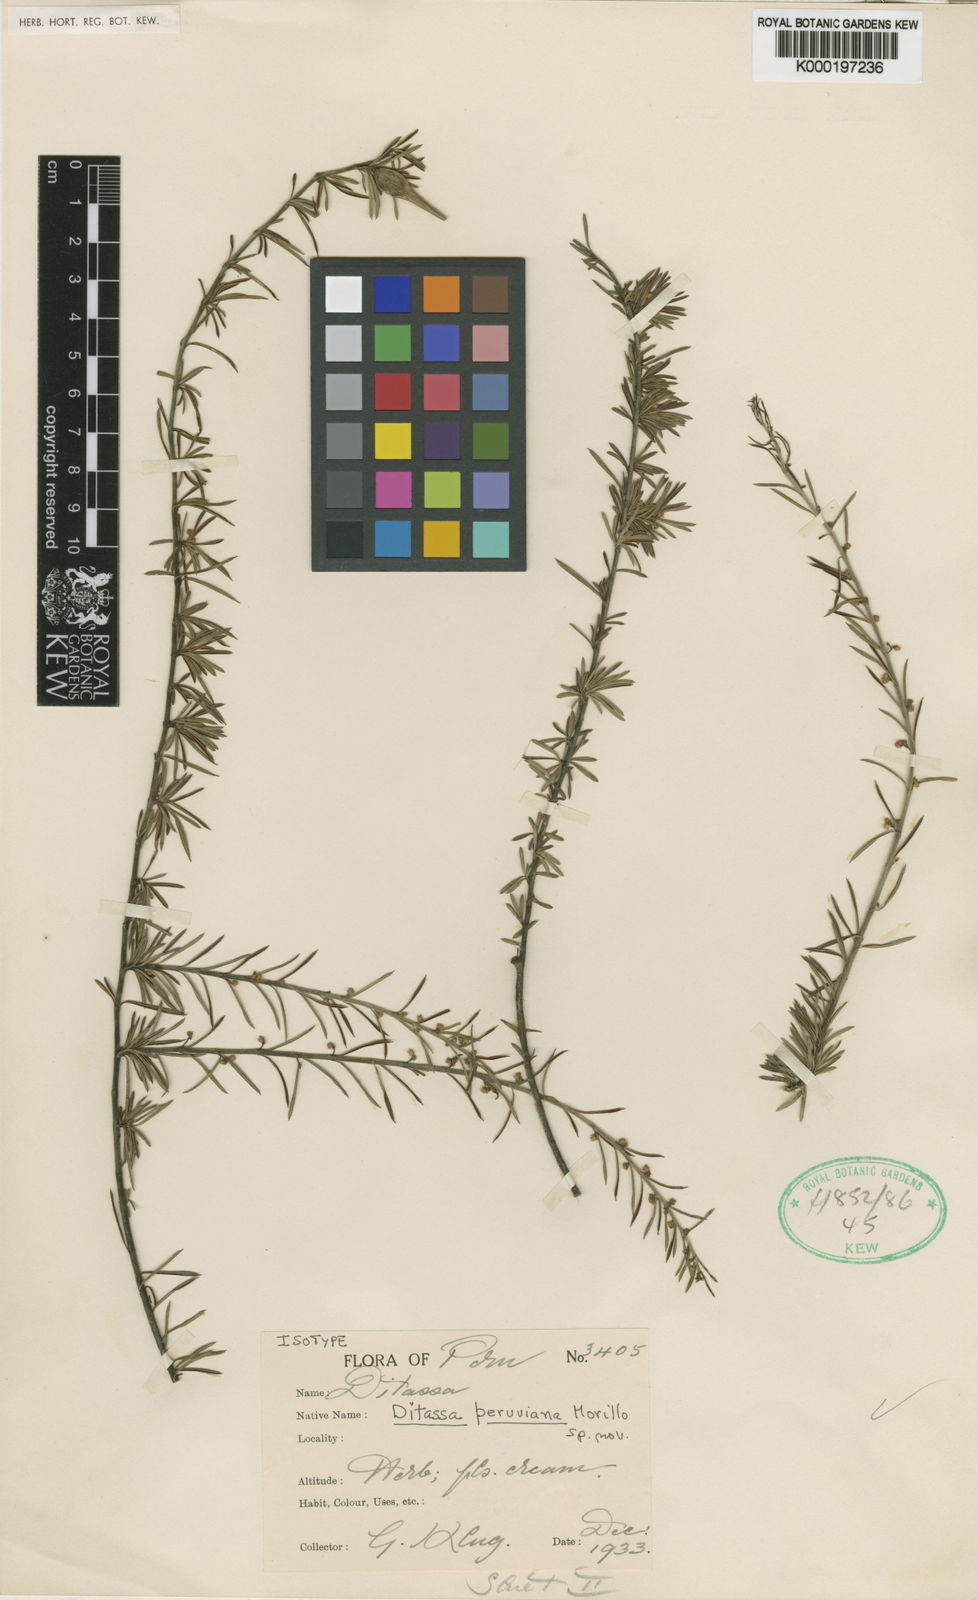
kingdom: Plantae
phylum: Tracheophyta
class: Magnoliopsida
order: Gentianales
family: Apocynaceae
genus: Ditassa
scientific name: Ditassa peruviana
